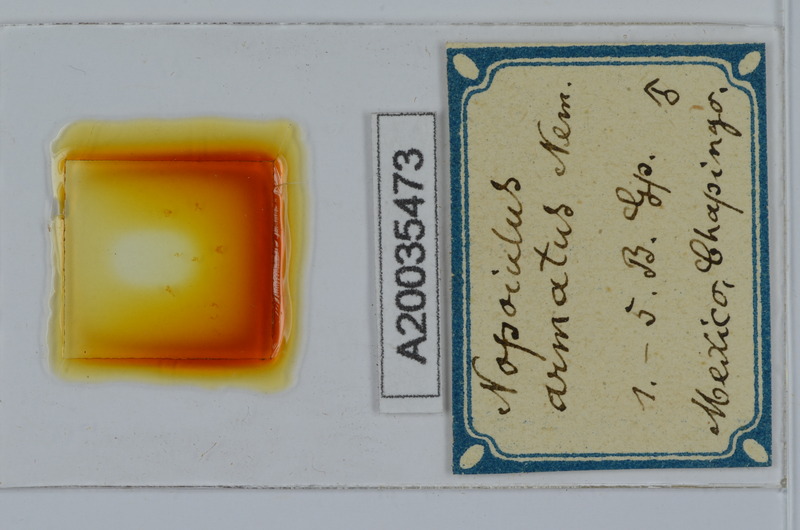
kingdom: Animalia
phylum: Arthropoda
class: Diplopoda
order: Julida
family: Blaniulidae
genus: Nopoiulus
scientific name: Nopoiulus kochii
